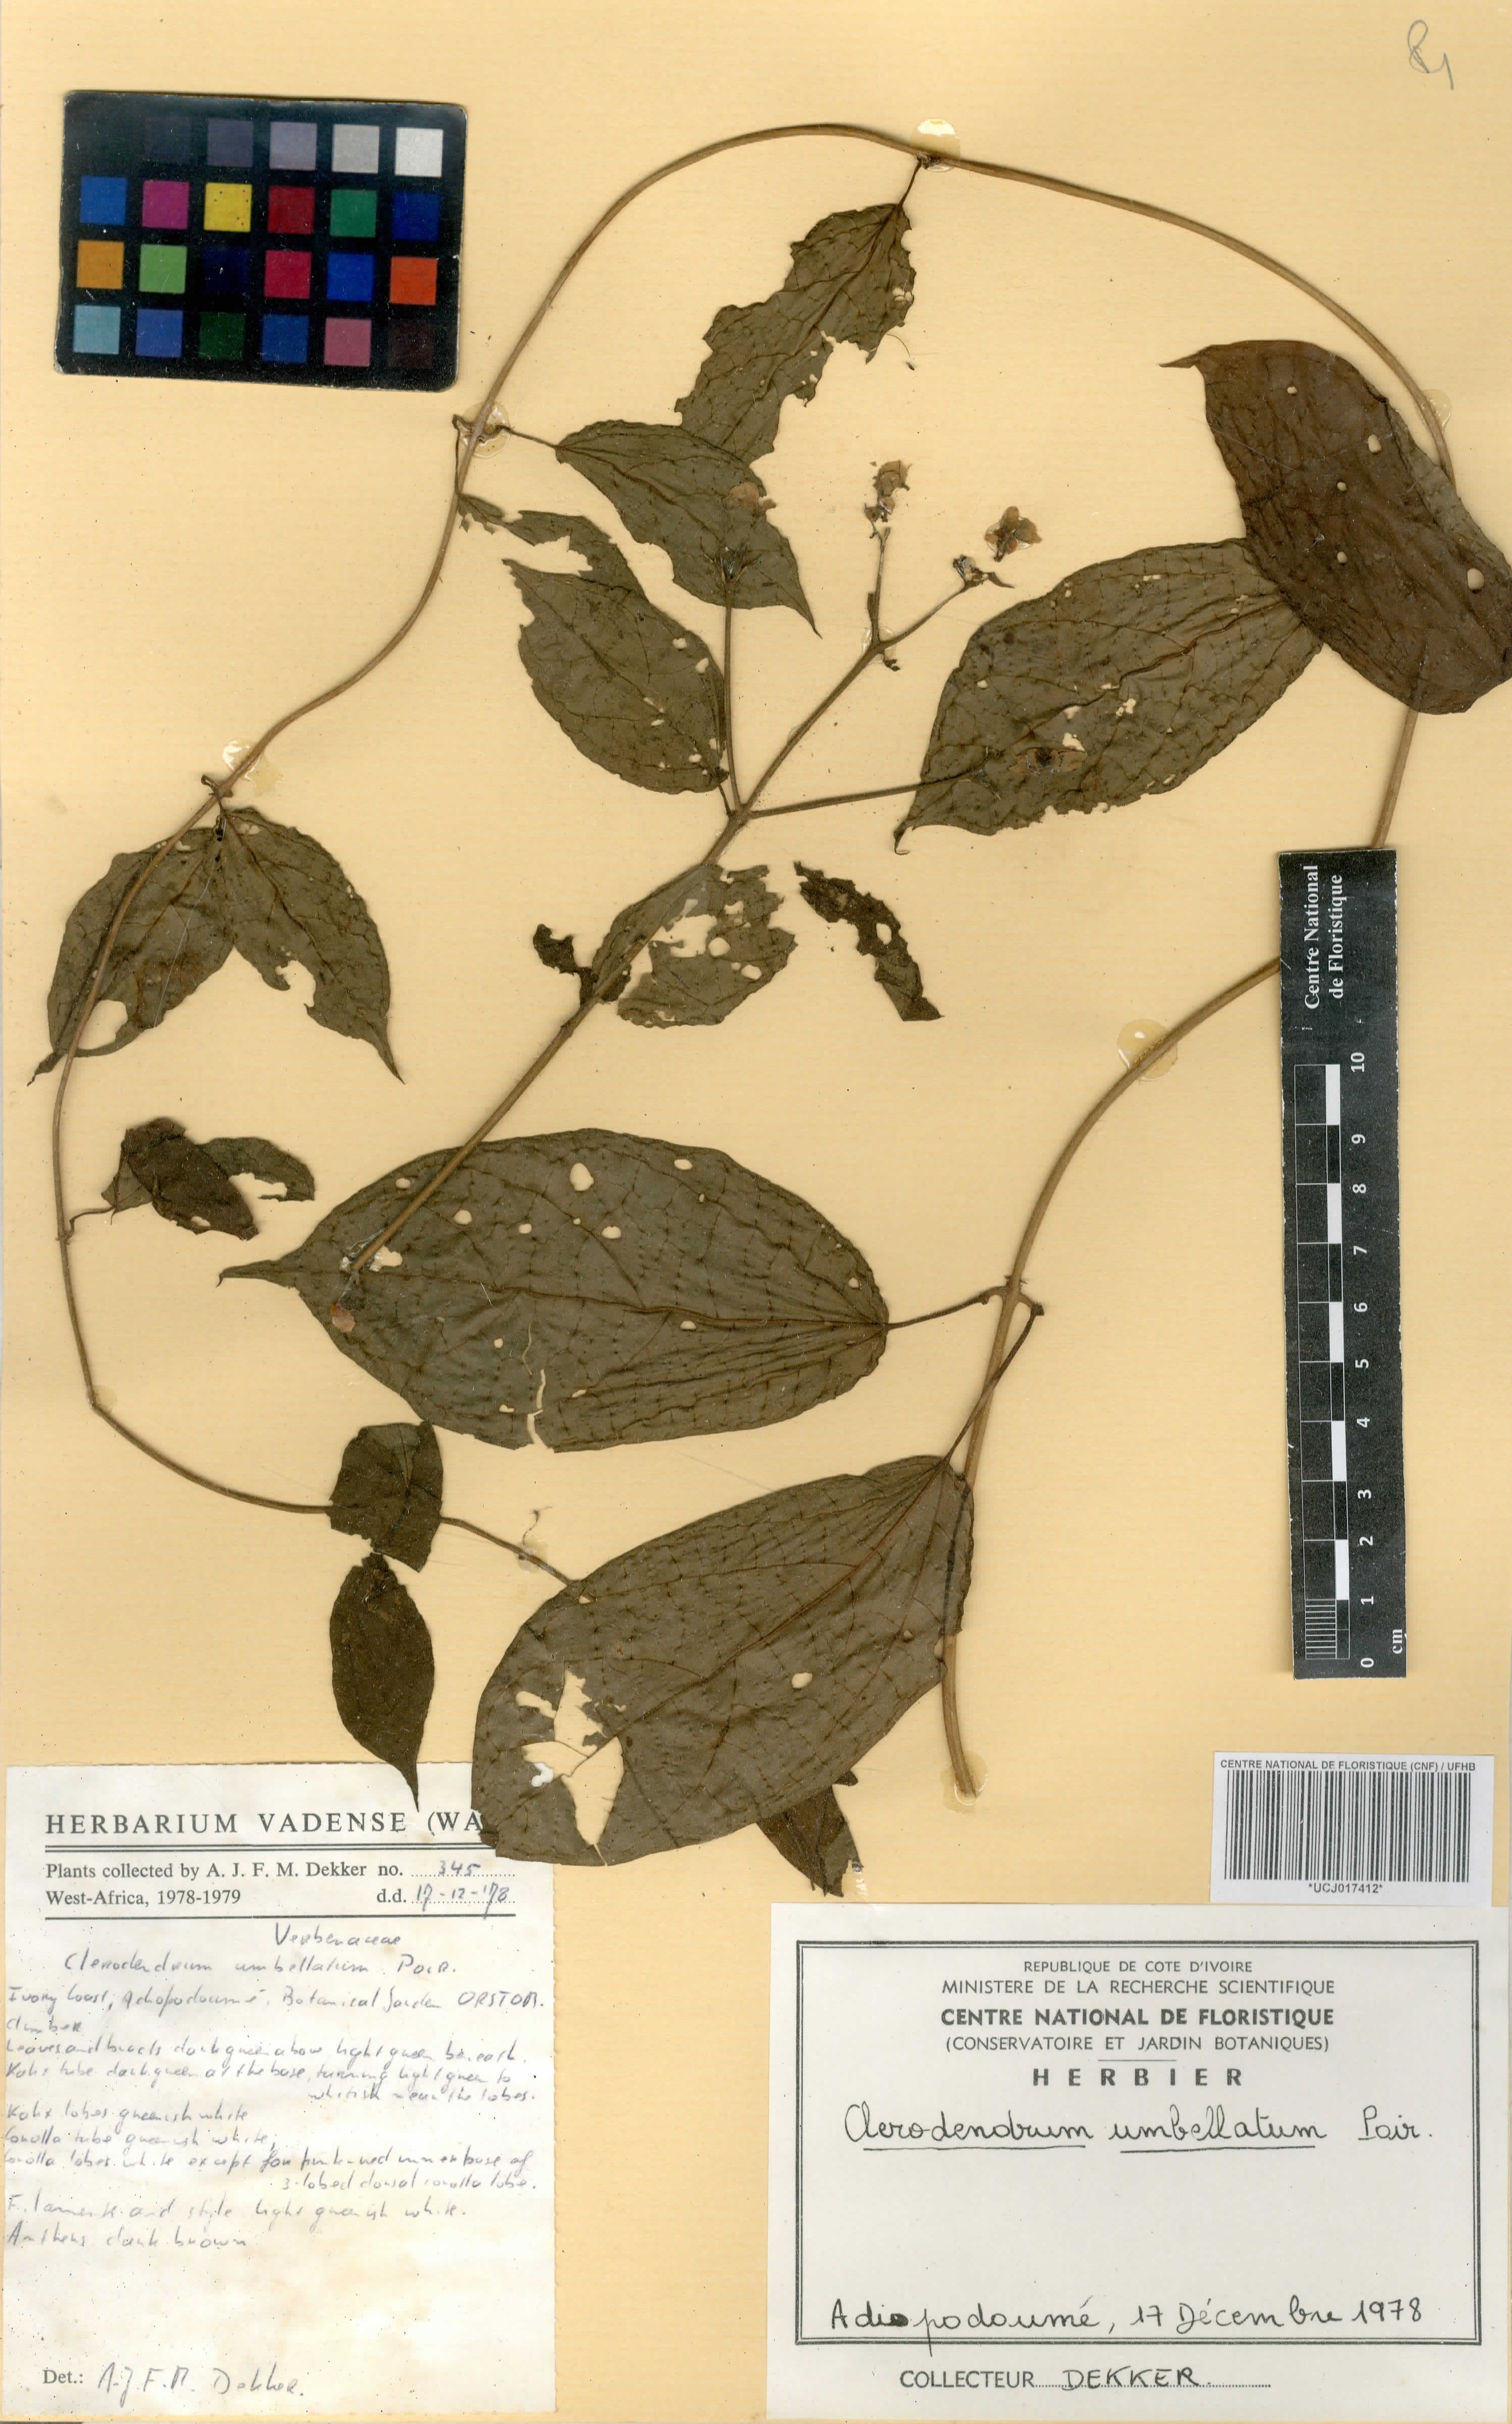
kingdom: Plantae
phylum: Tracheophyta
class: Magnoliopsida
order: Lamiales
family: Lamiaceae
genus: Clerodendrum
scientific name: Clerodendrum umbellatum
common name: Umbel clerodendrum
